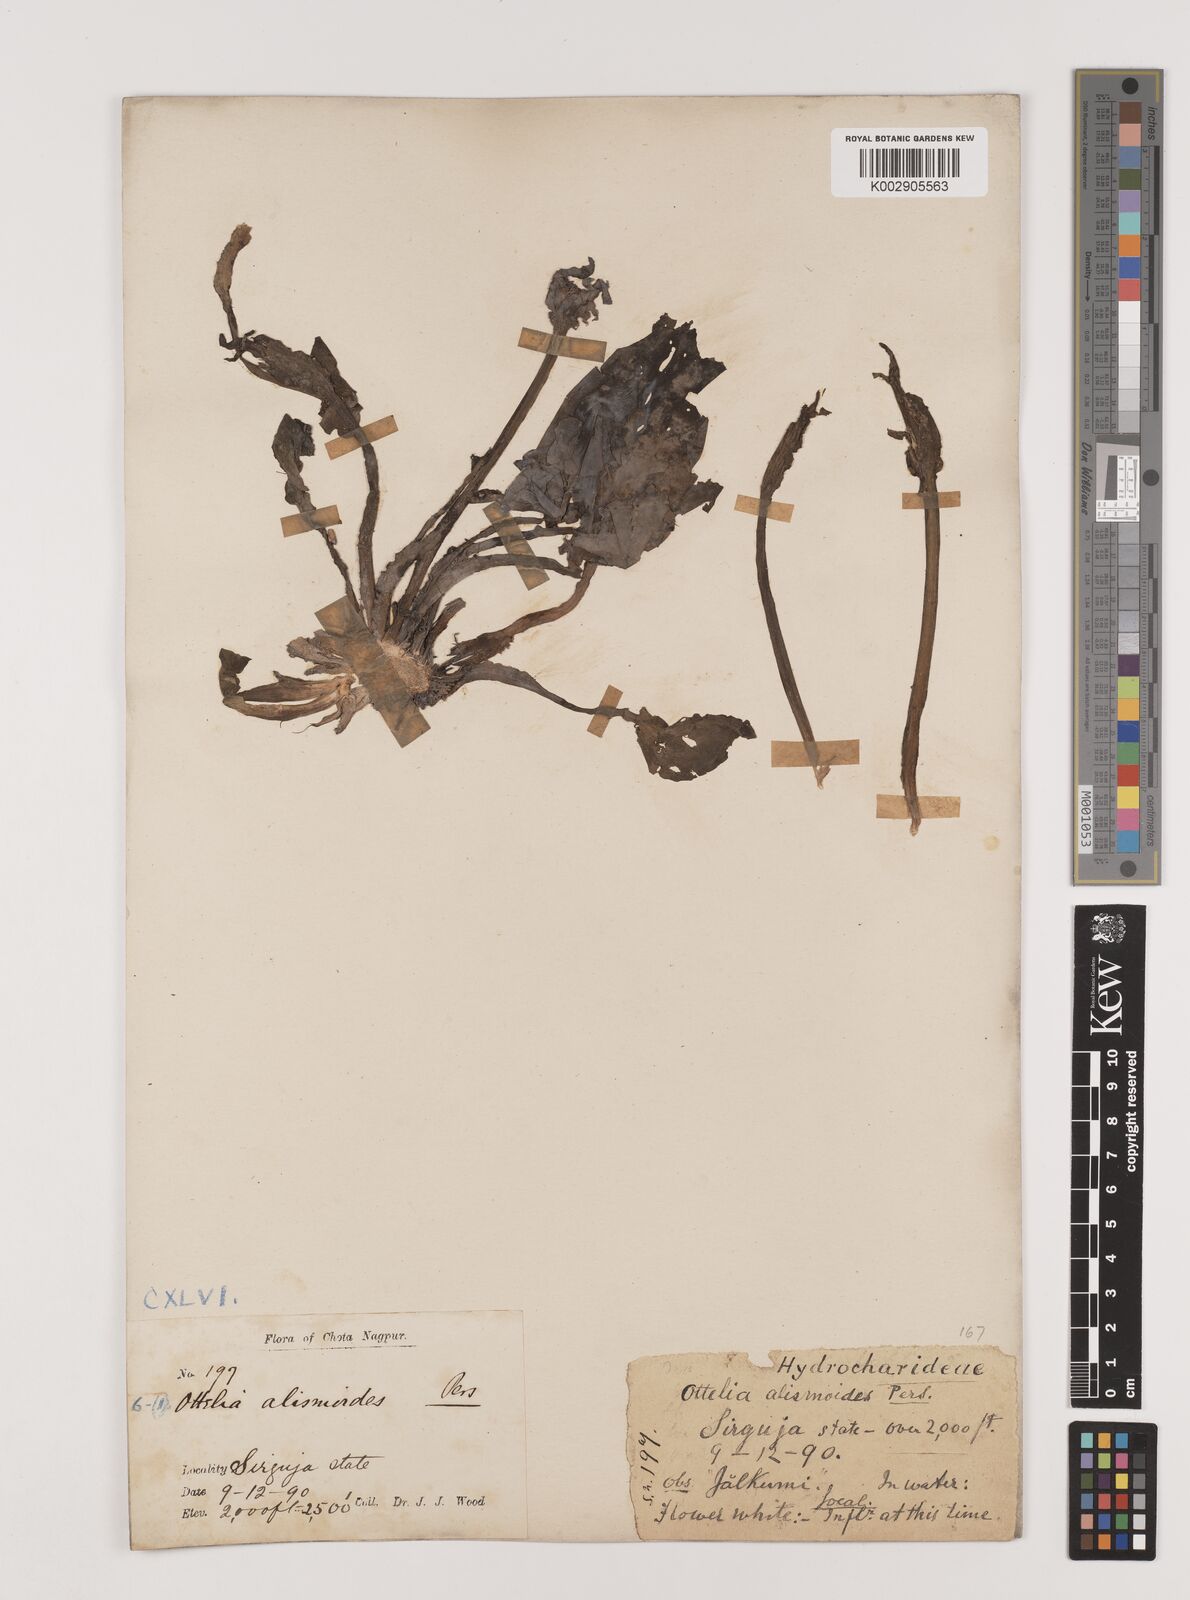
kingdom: Plantae
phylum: Tracheophyta
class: Liliopsida
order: Alismatales
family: Hydrocharitaceae
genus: Ottelia
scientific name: Ottelia alismoides
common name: Duck-lettuce
